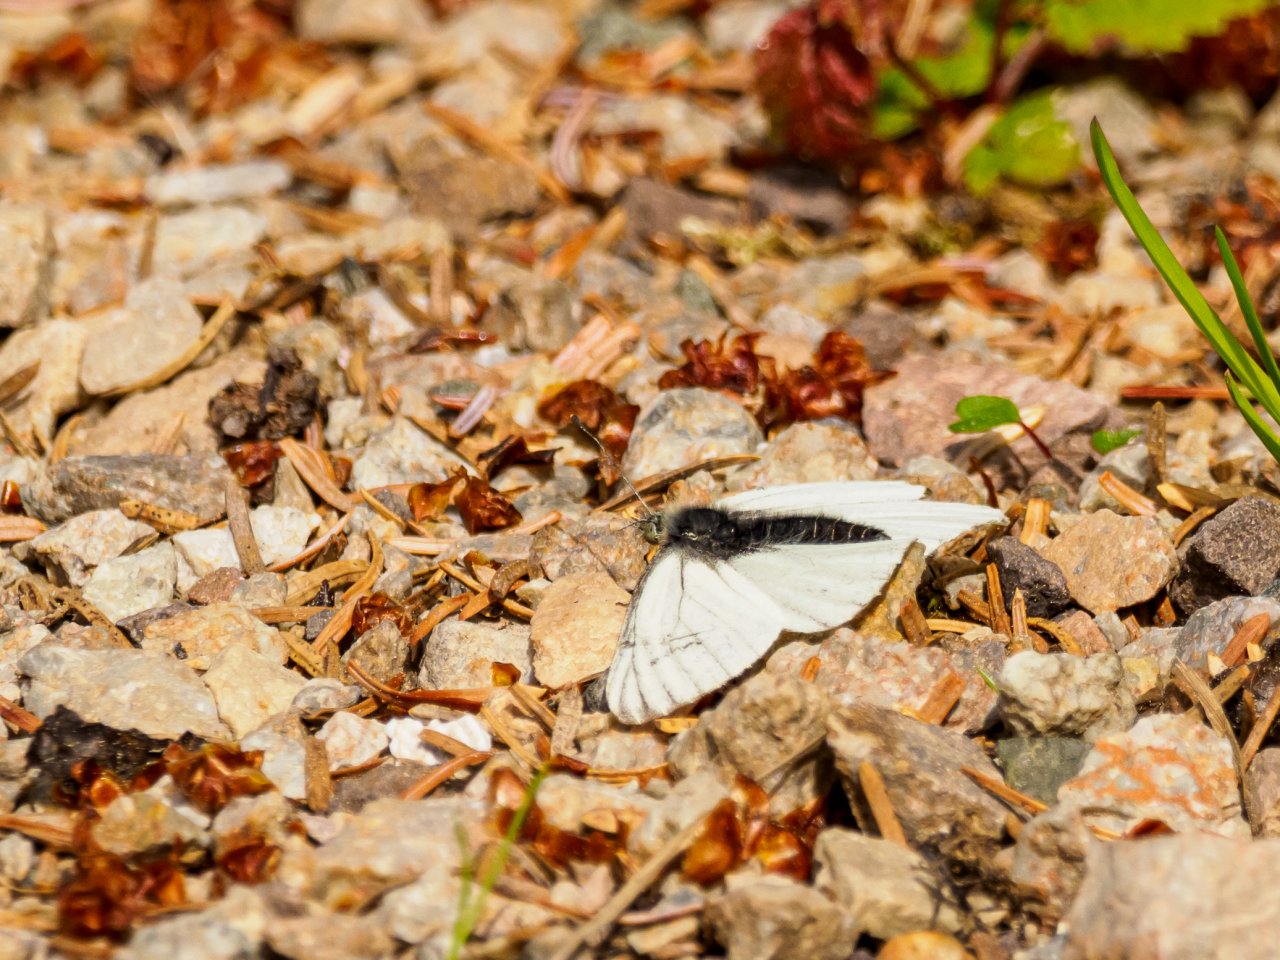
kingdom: Animalia
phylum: Arthropoda
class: Insecta
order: Lepidoptera
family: Pieridae
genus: Pieris
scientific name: Pieris marginalis
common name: Margined White
